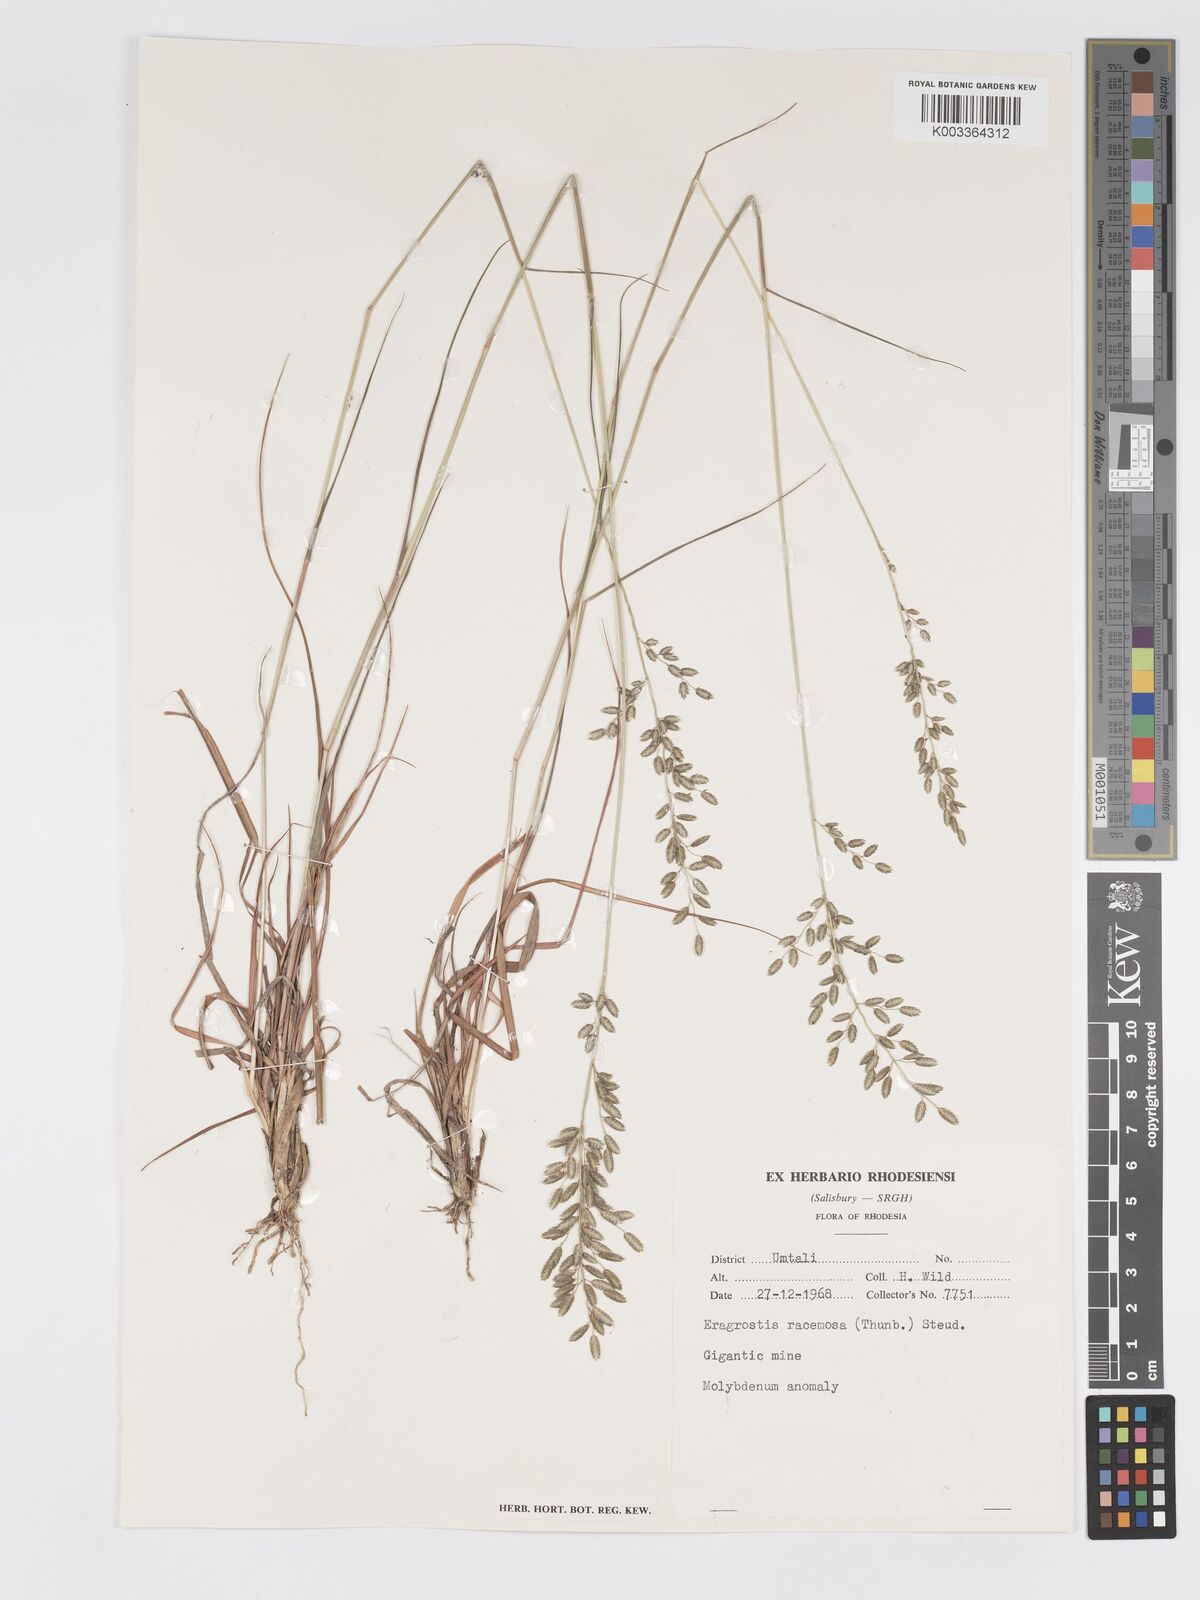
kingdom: Plantae
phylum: Tracheophyta
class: Liliopsida
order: Poales
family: Poaceae
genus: Eragrostis
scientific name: Eragrostis racemosa
